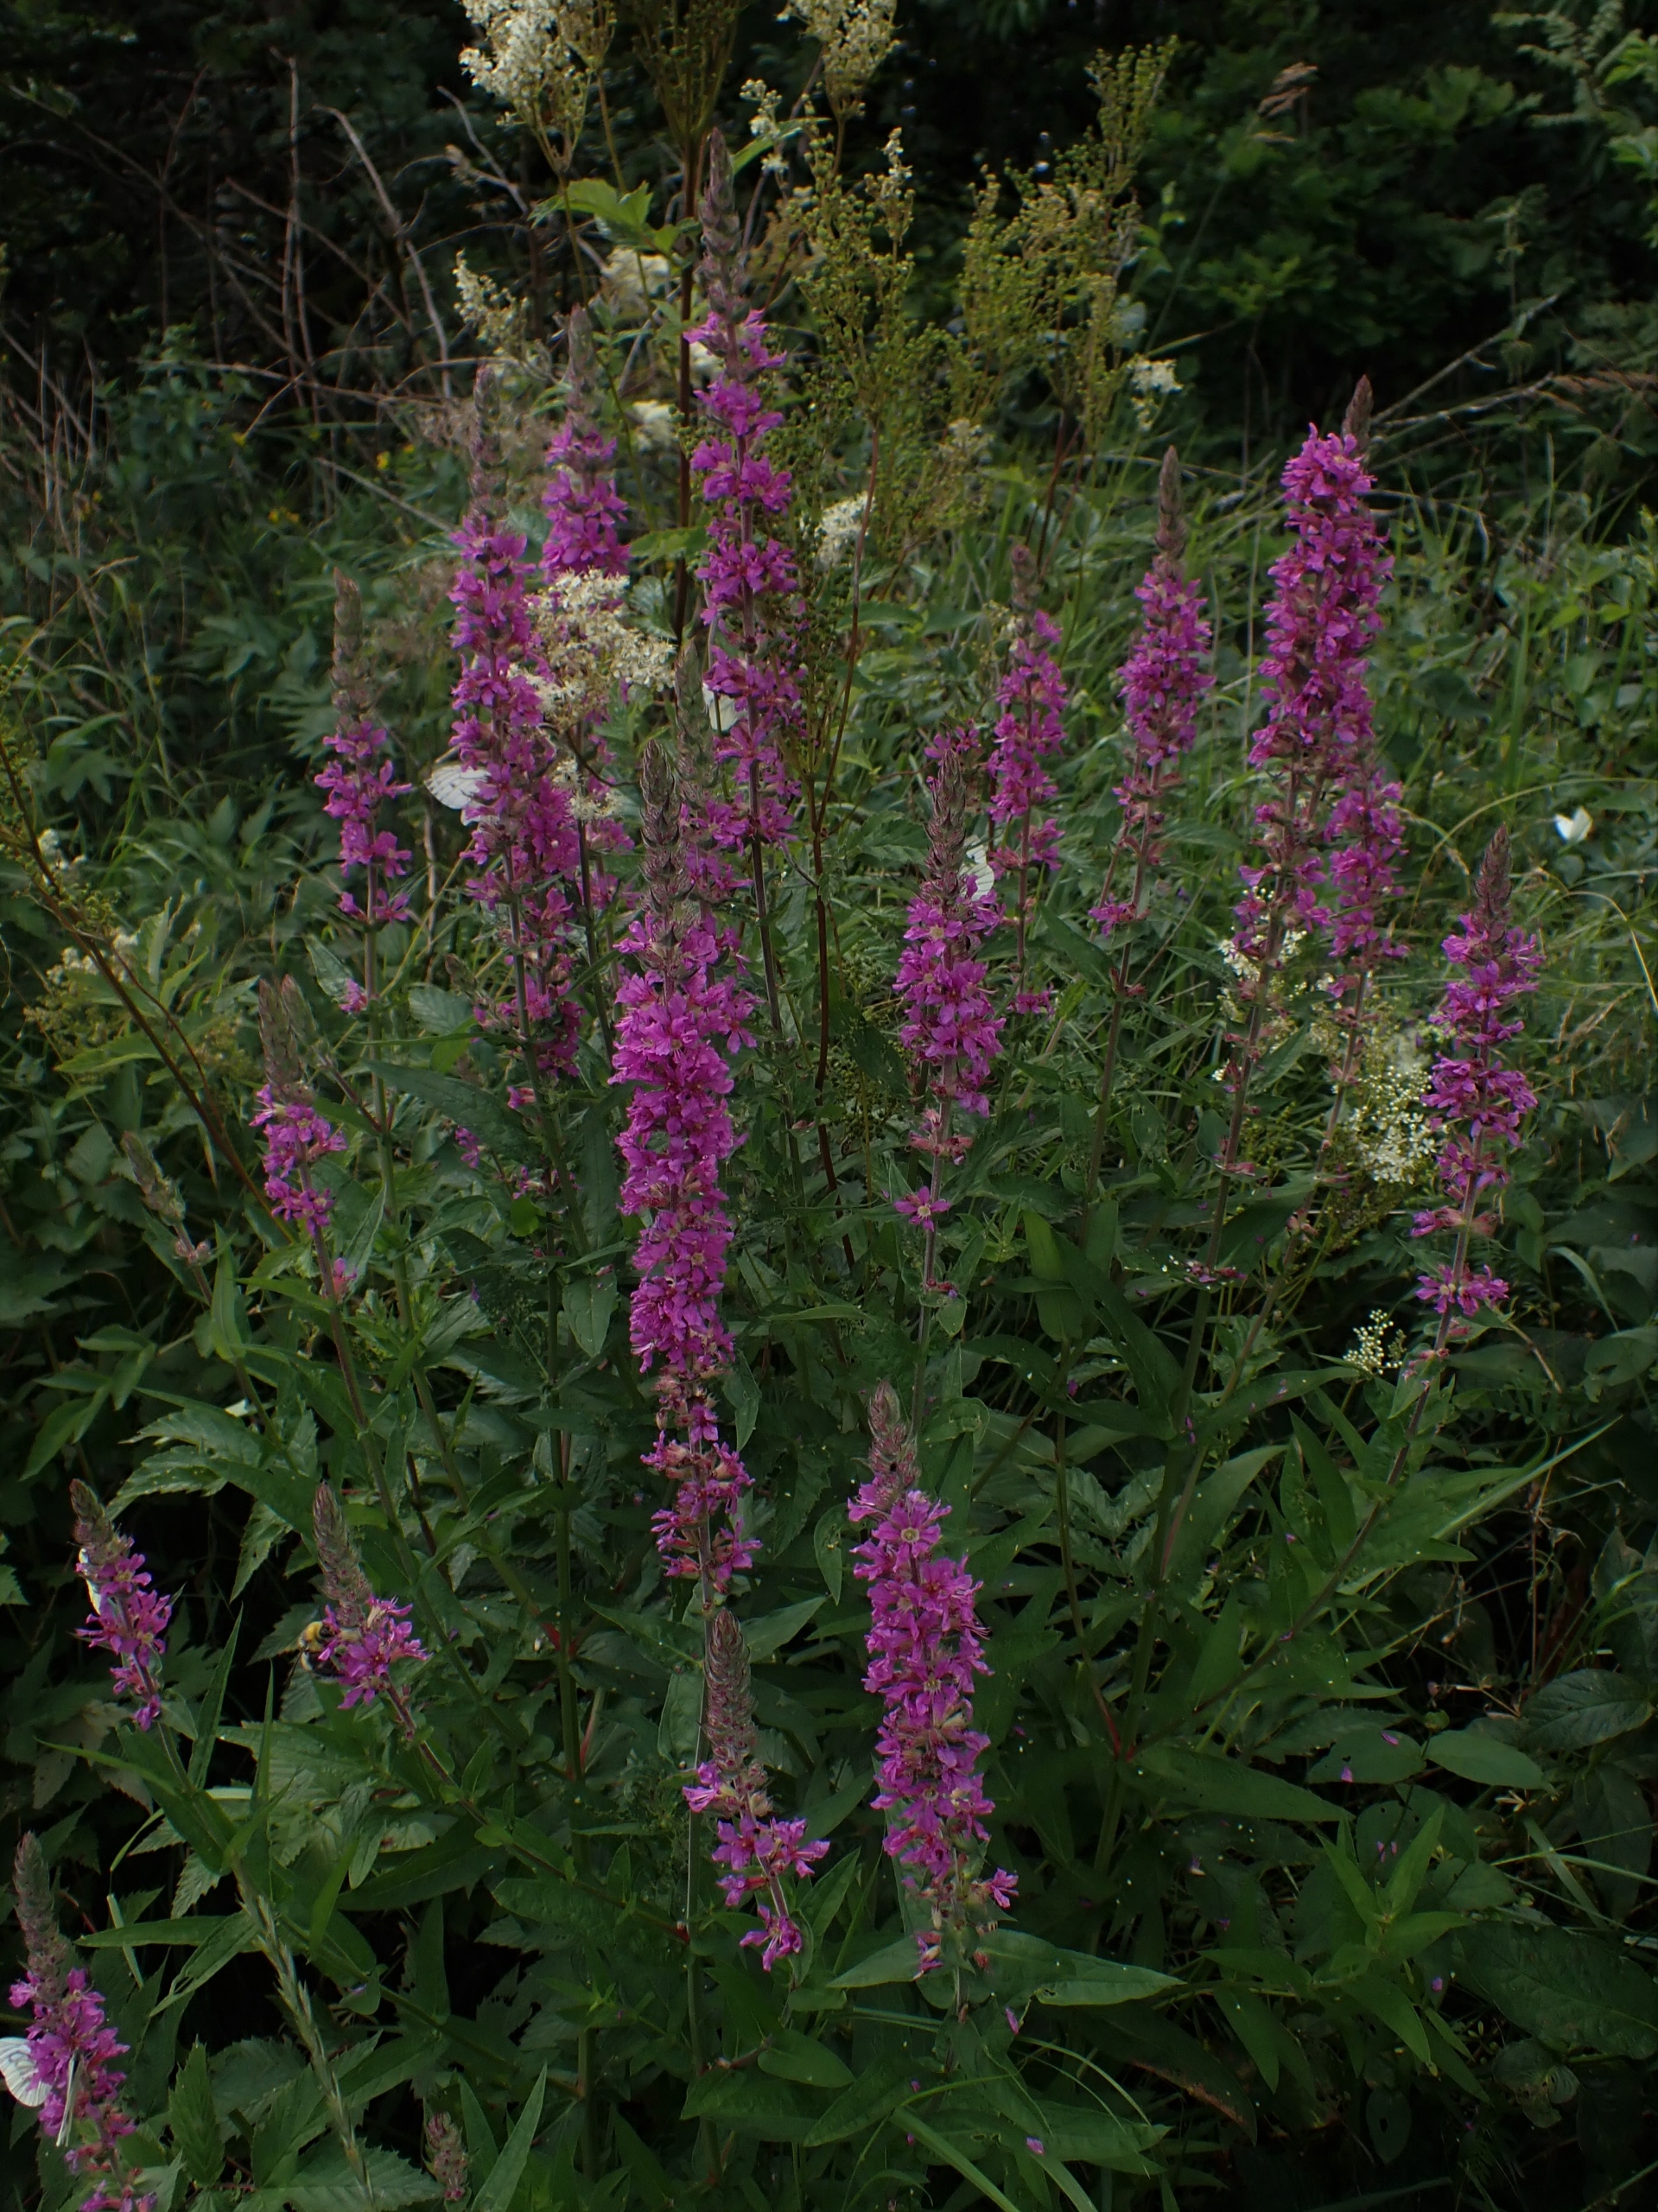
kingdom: Plantae
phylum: Tracheophyta
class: Magnoliopsida
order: Myrtales
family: Lythraceae
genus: Lythrum
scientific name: Lythrum salicaria
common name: Kattehale
